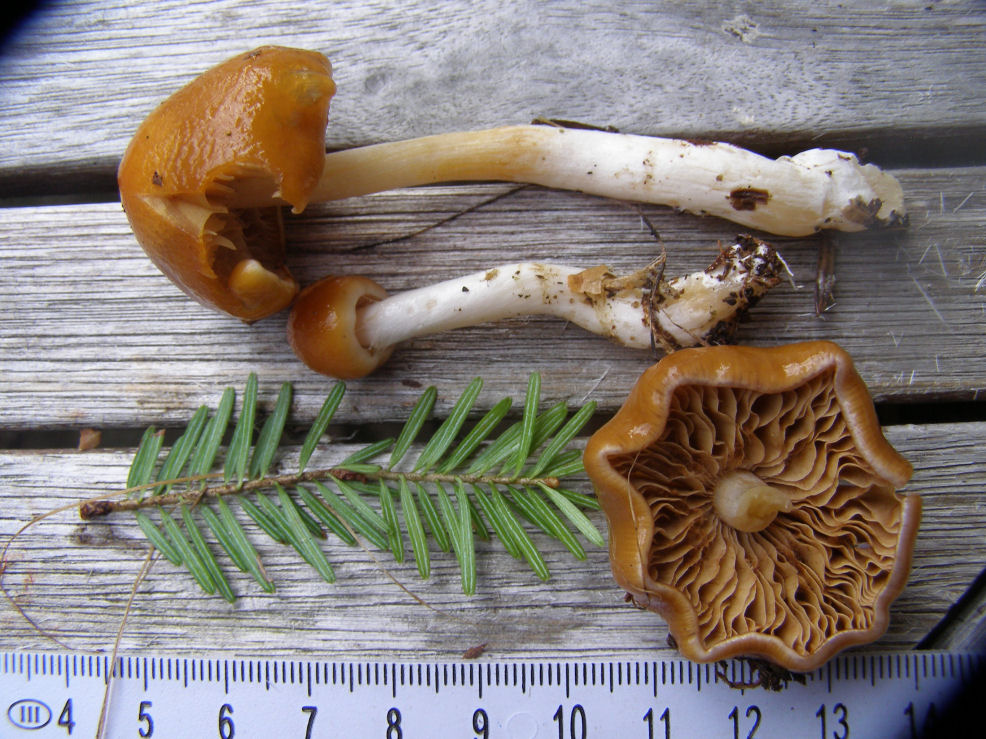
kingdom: Fungi
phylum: Basidiomycota
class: Agaricomycetes
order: Agaricales
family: Cortinariaceae
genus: Thaxterogaster
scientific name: Thaxterogaster
